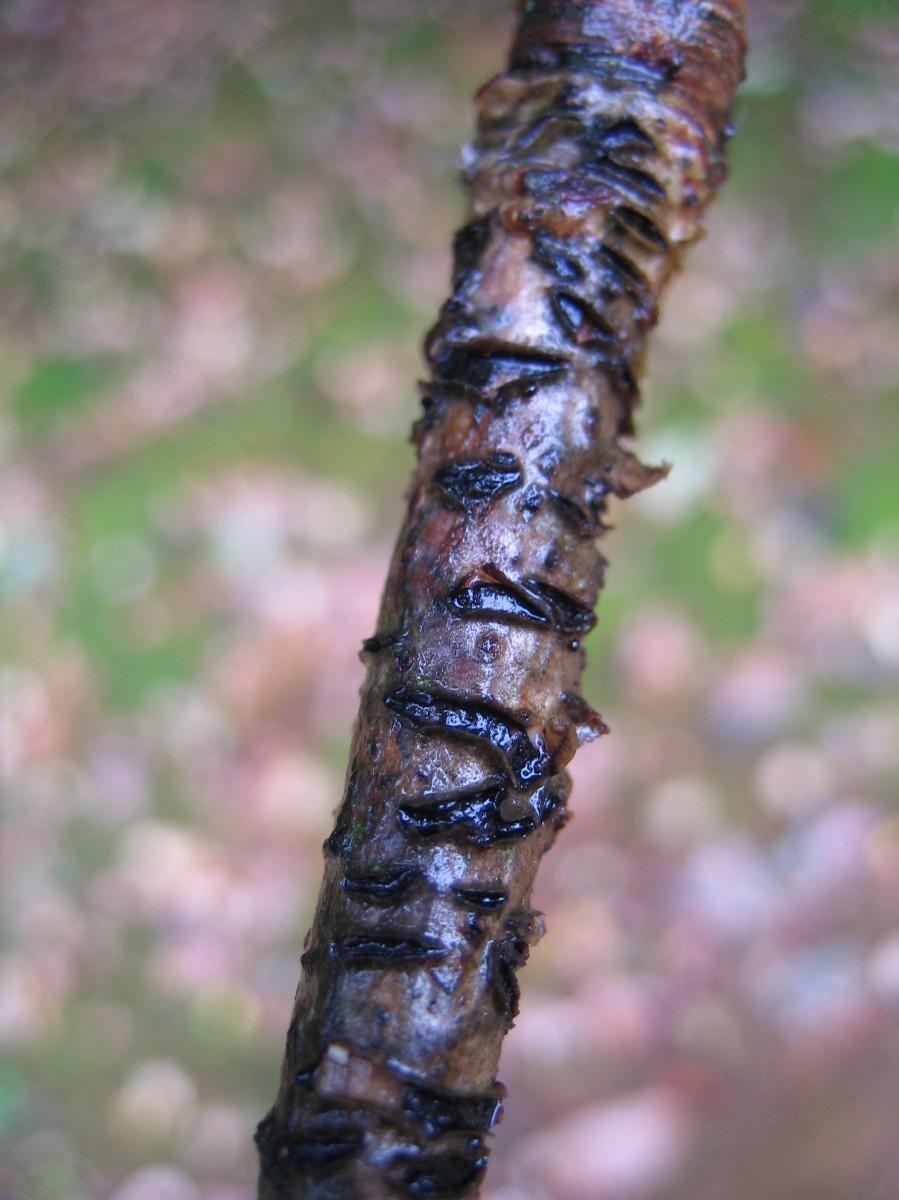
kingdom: Fungi
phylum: Ascomycota
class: Leotiomycetes
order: Rhytismatales
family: Rhytismataceae
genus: Colpoma
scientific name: Colpoma quercinum
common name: ege-sprækkeskive
